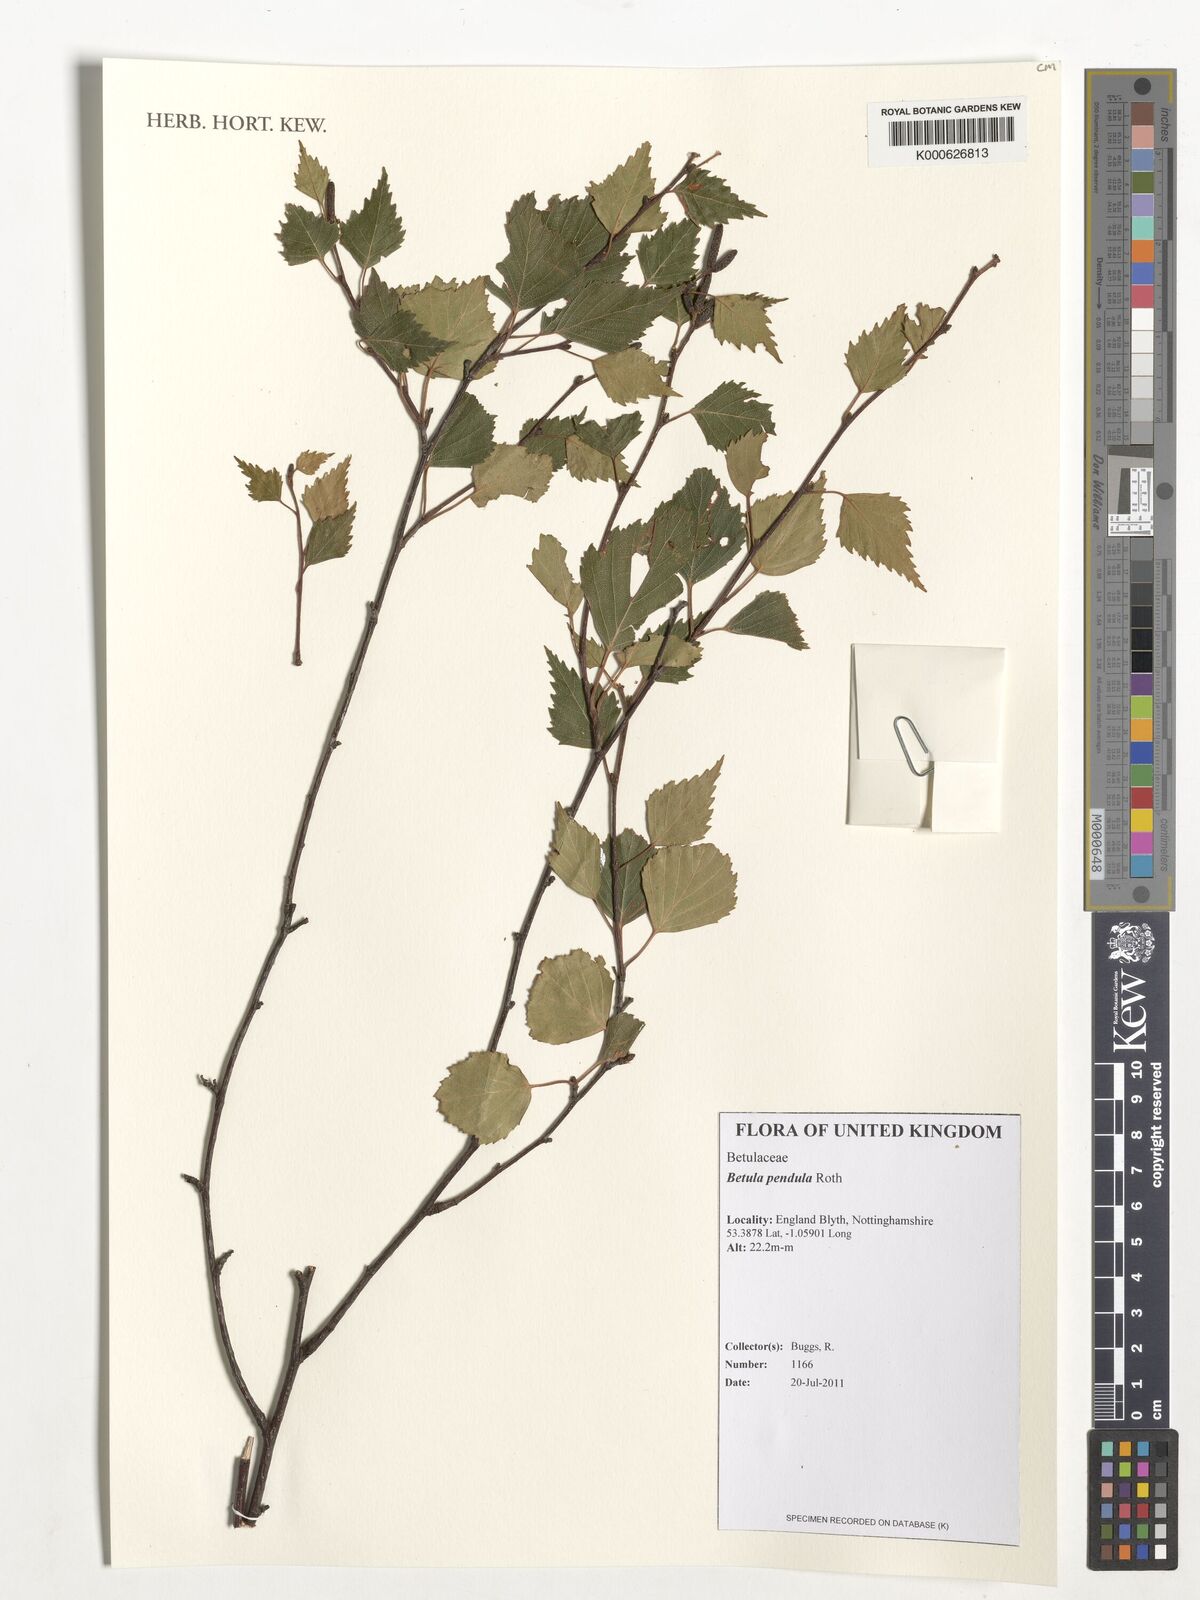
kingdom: Plantae
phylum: Tracheophyta
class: Magnoliopsida
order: Fagales
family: Betulaceae
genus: Betula
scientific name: Betula pendula
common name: Silver birch
